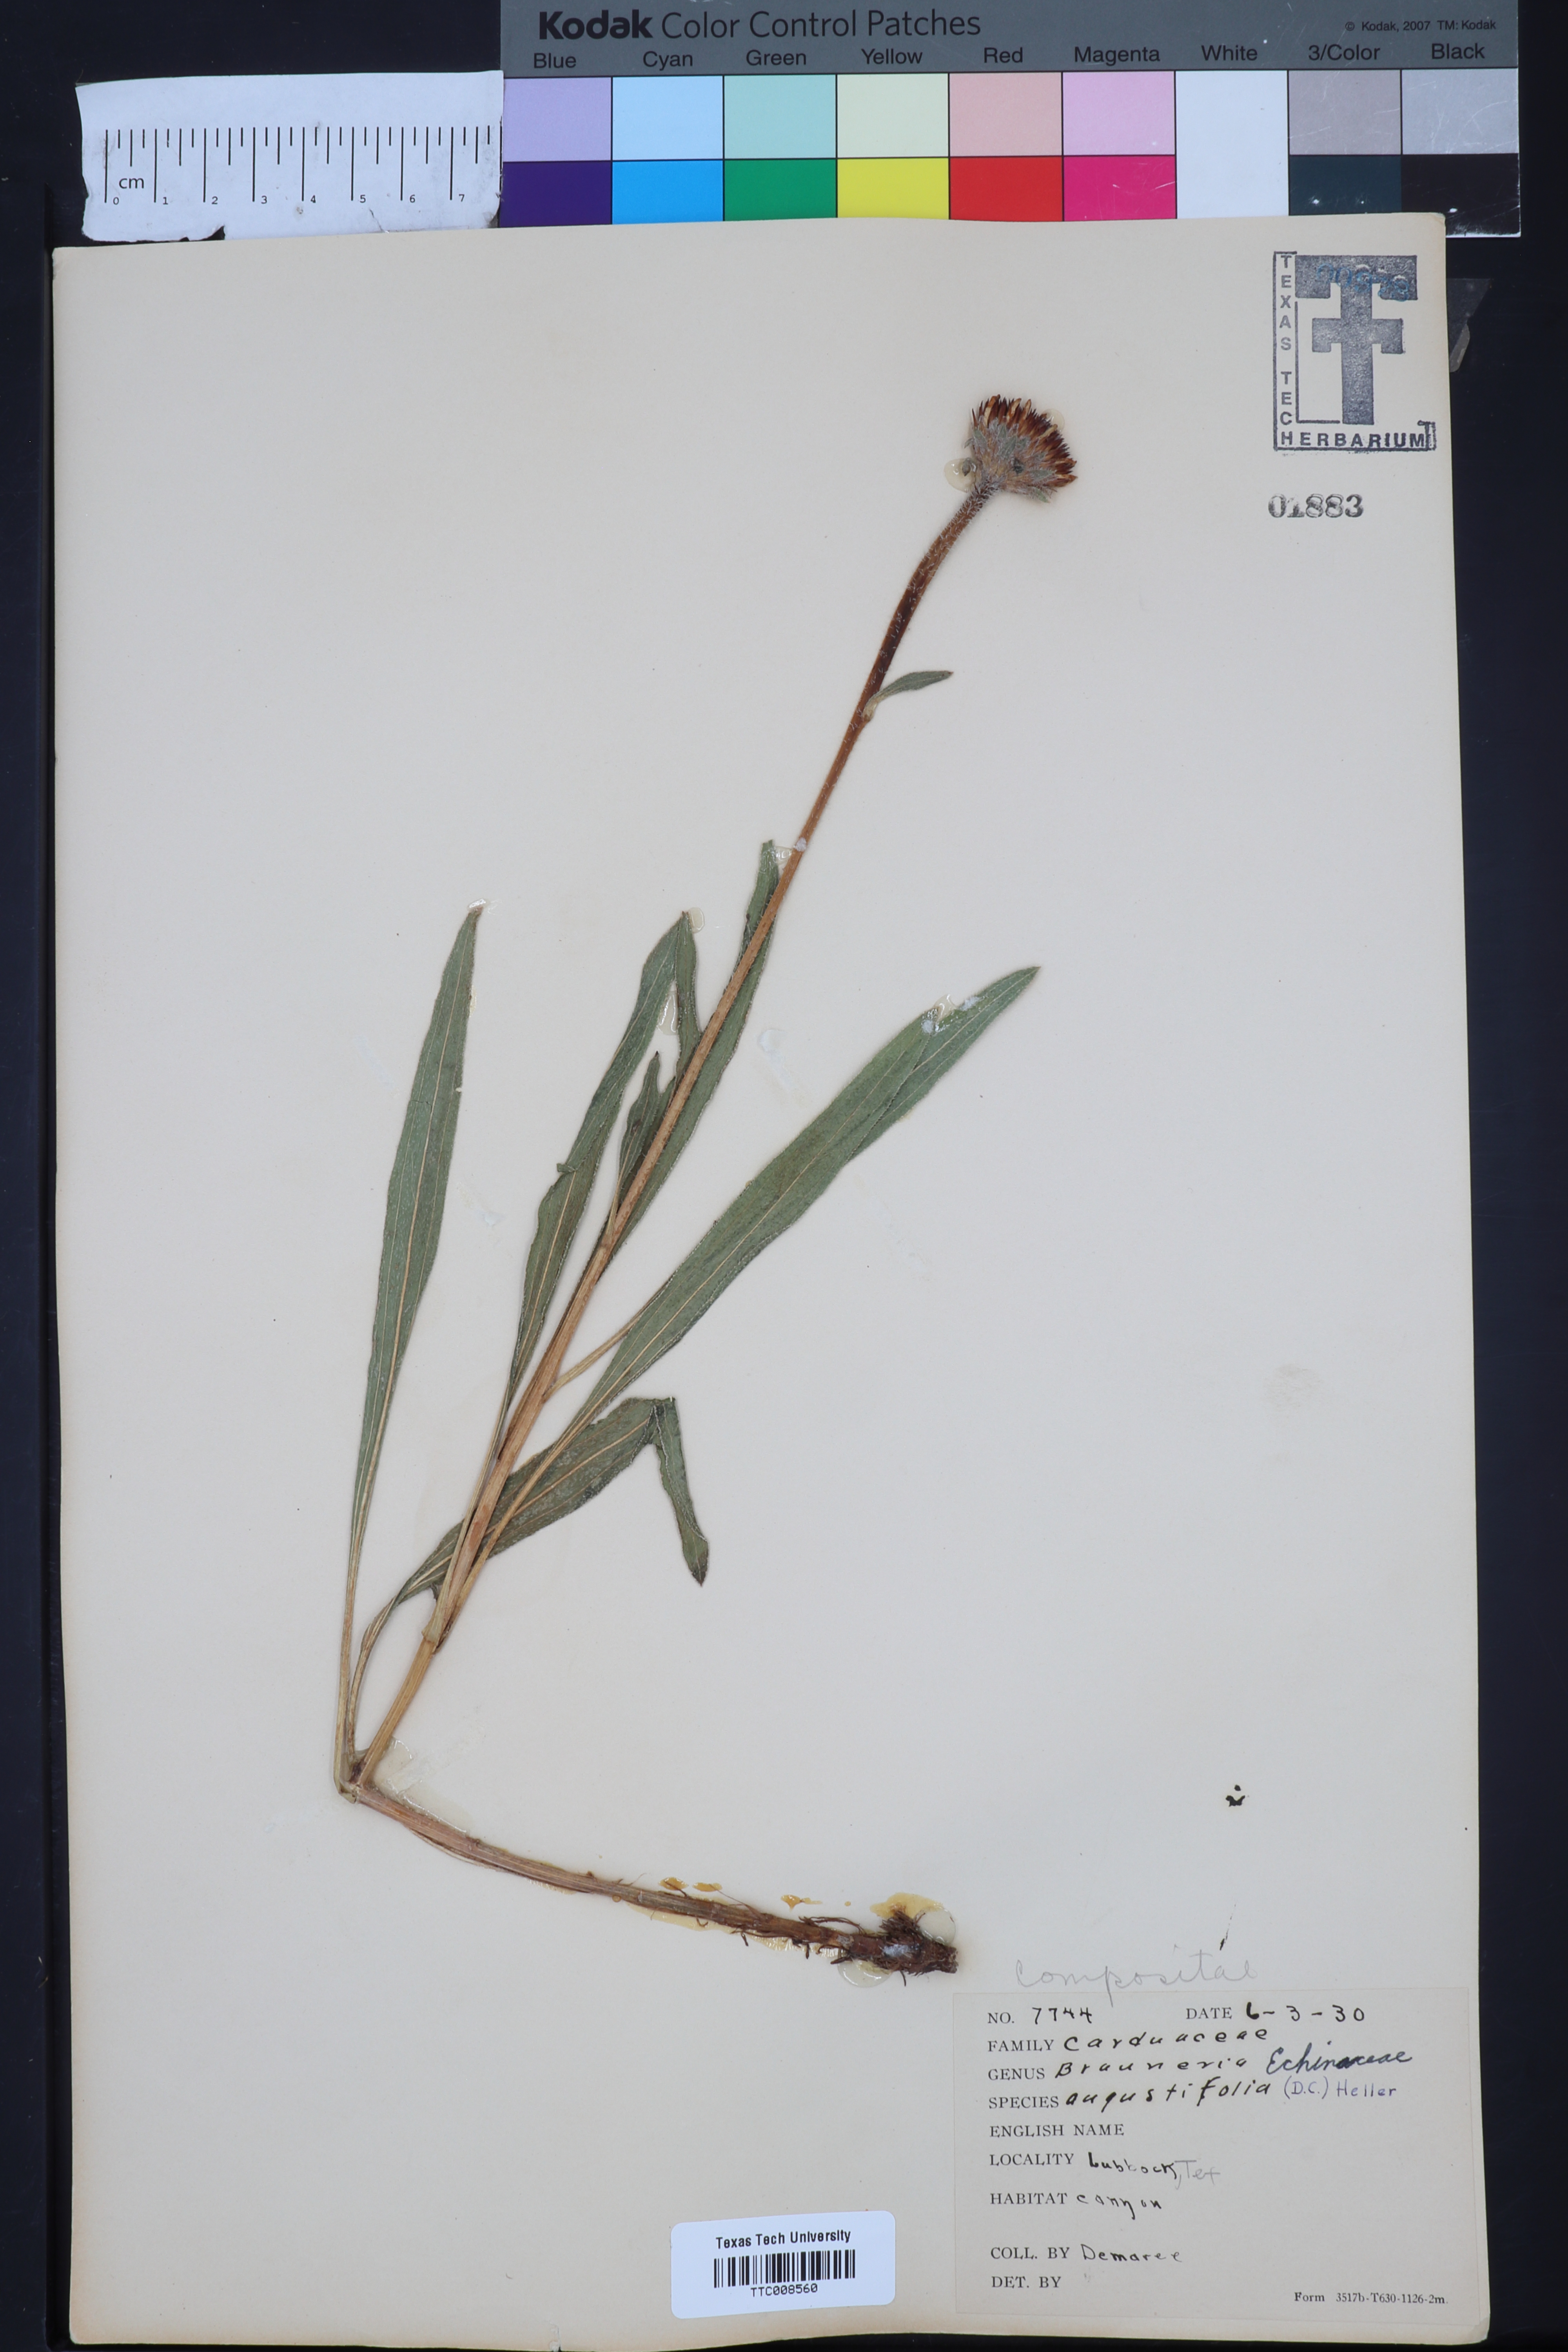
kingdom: Plantae
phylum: Tracheophyta
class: Magnoliopsida
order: Asterales
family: Asteraceae
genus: Echinacea
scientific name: Echinacea angustifolia
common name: Black-sampson echinacea
